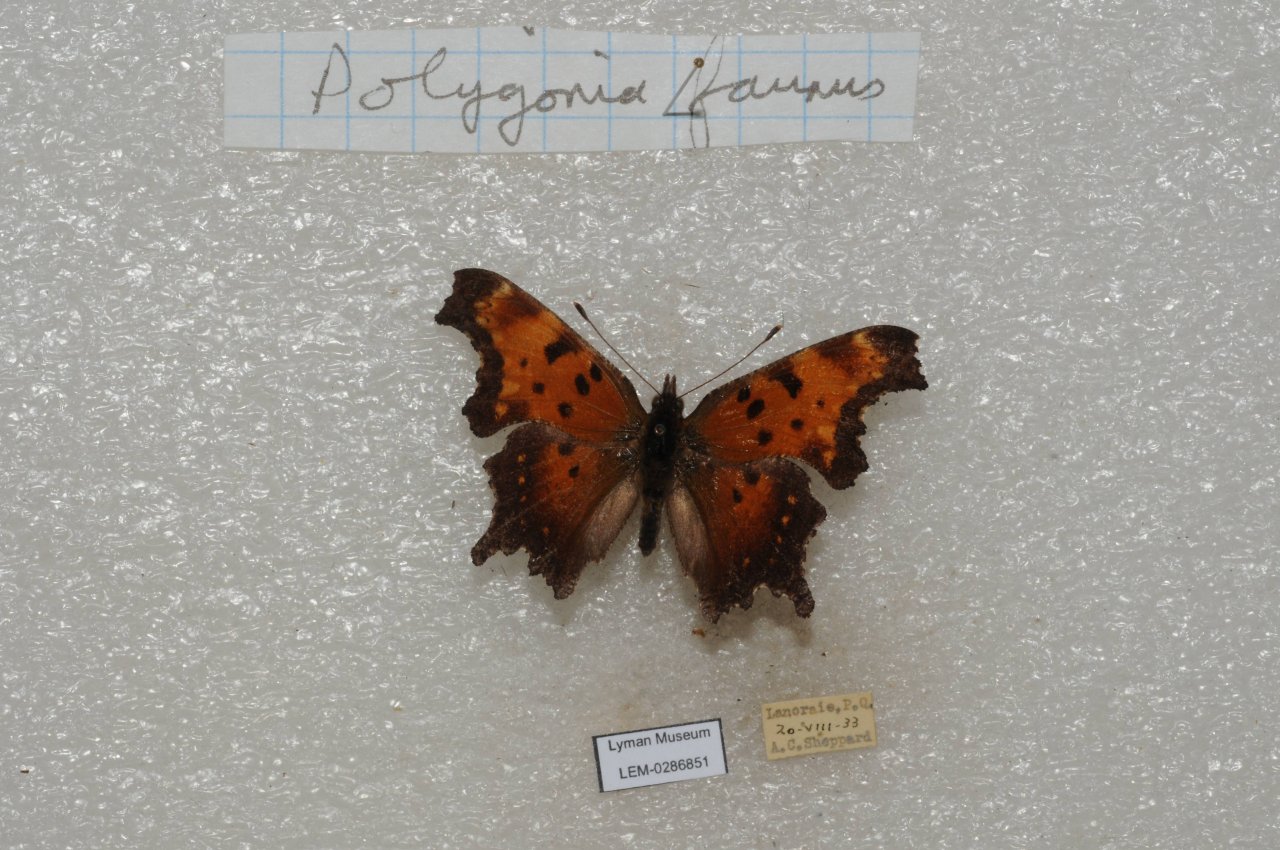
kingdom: Animalia
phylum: Arthropoda
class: Insecta
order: Lepidoptera
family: Nymphalidae
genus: Polygonia
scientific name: Polygonia faunus
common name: Green Comma
